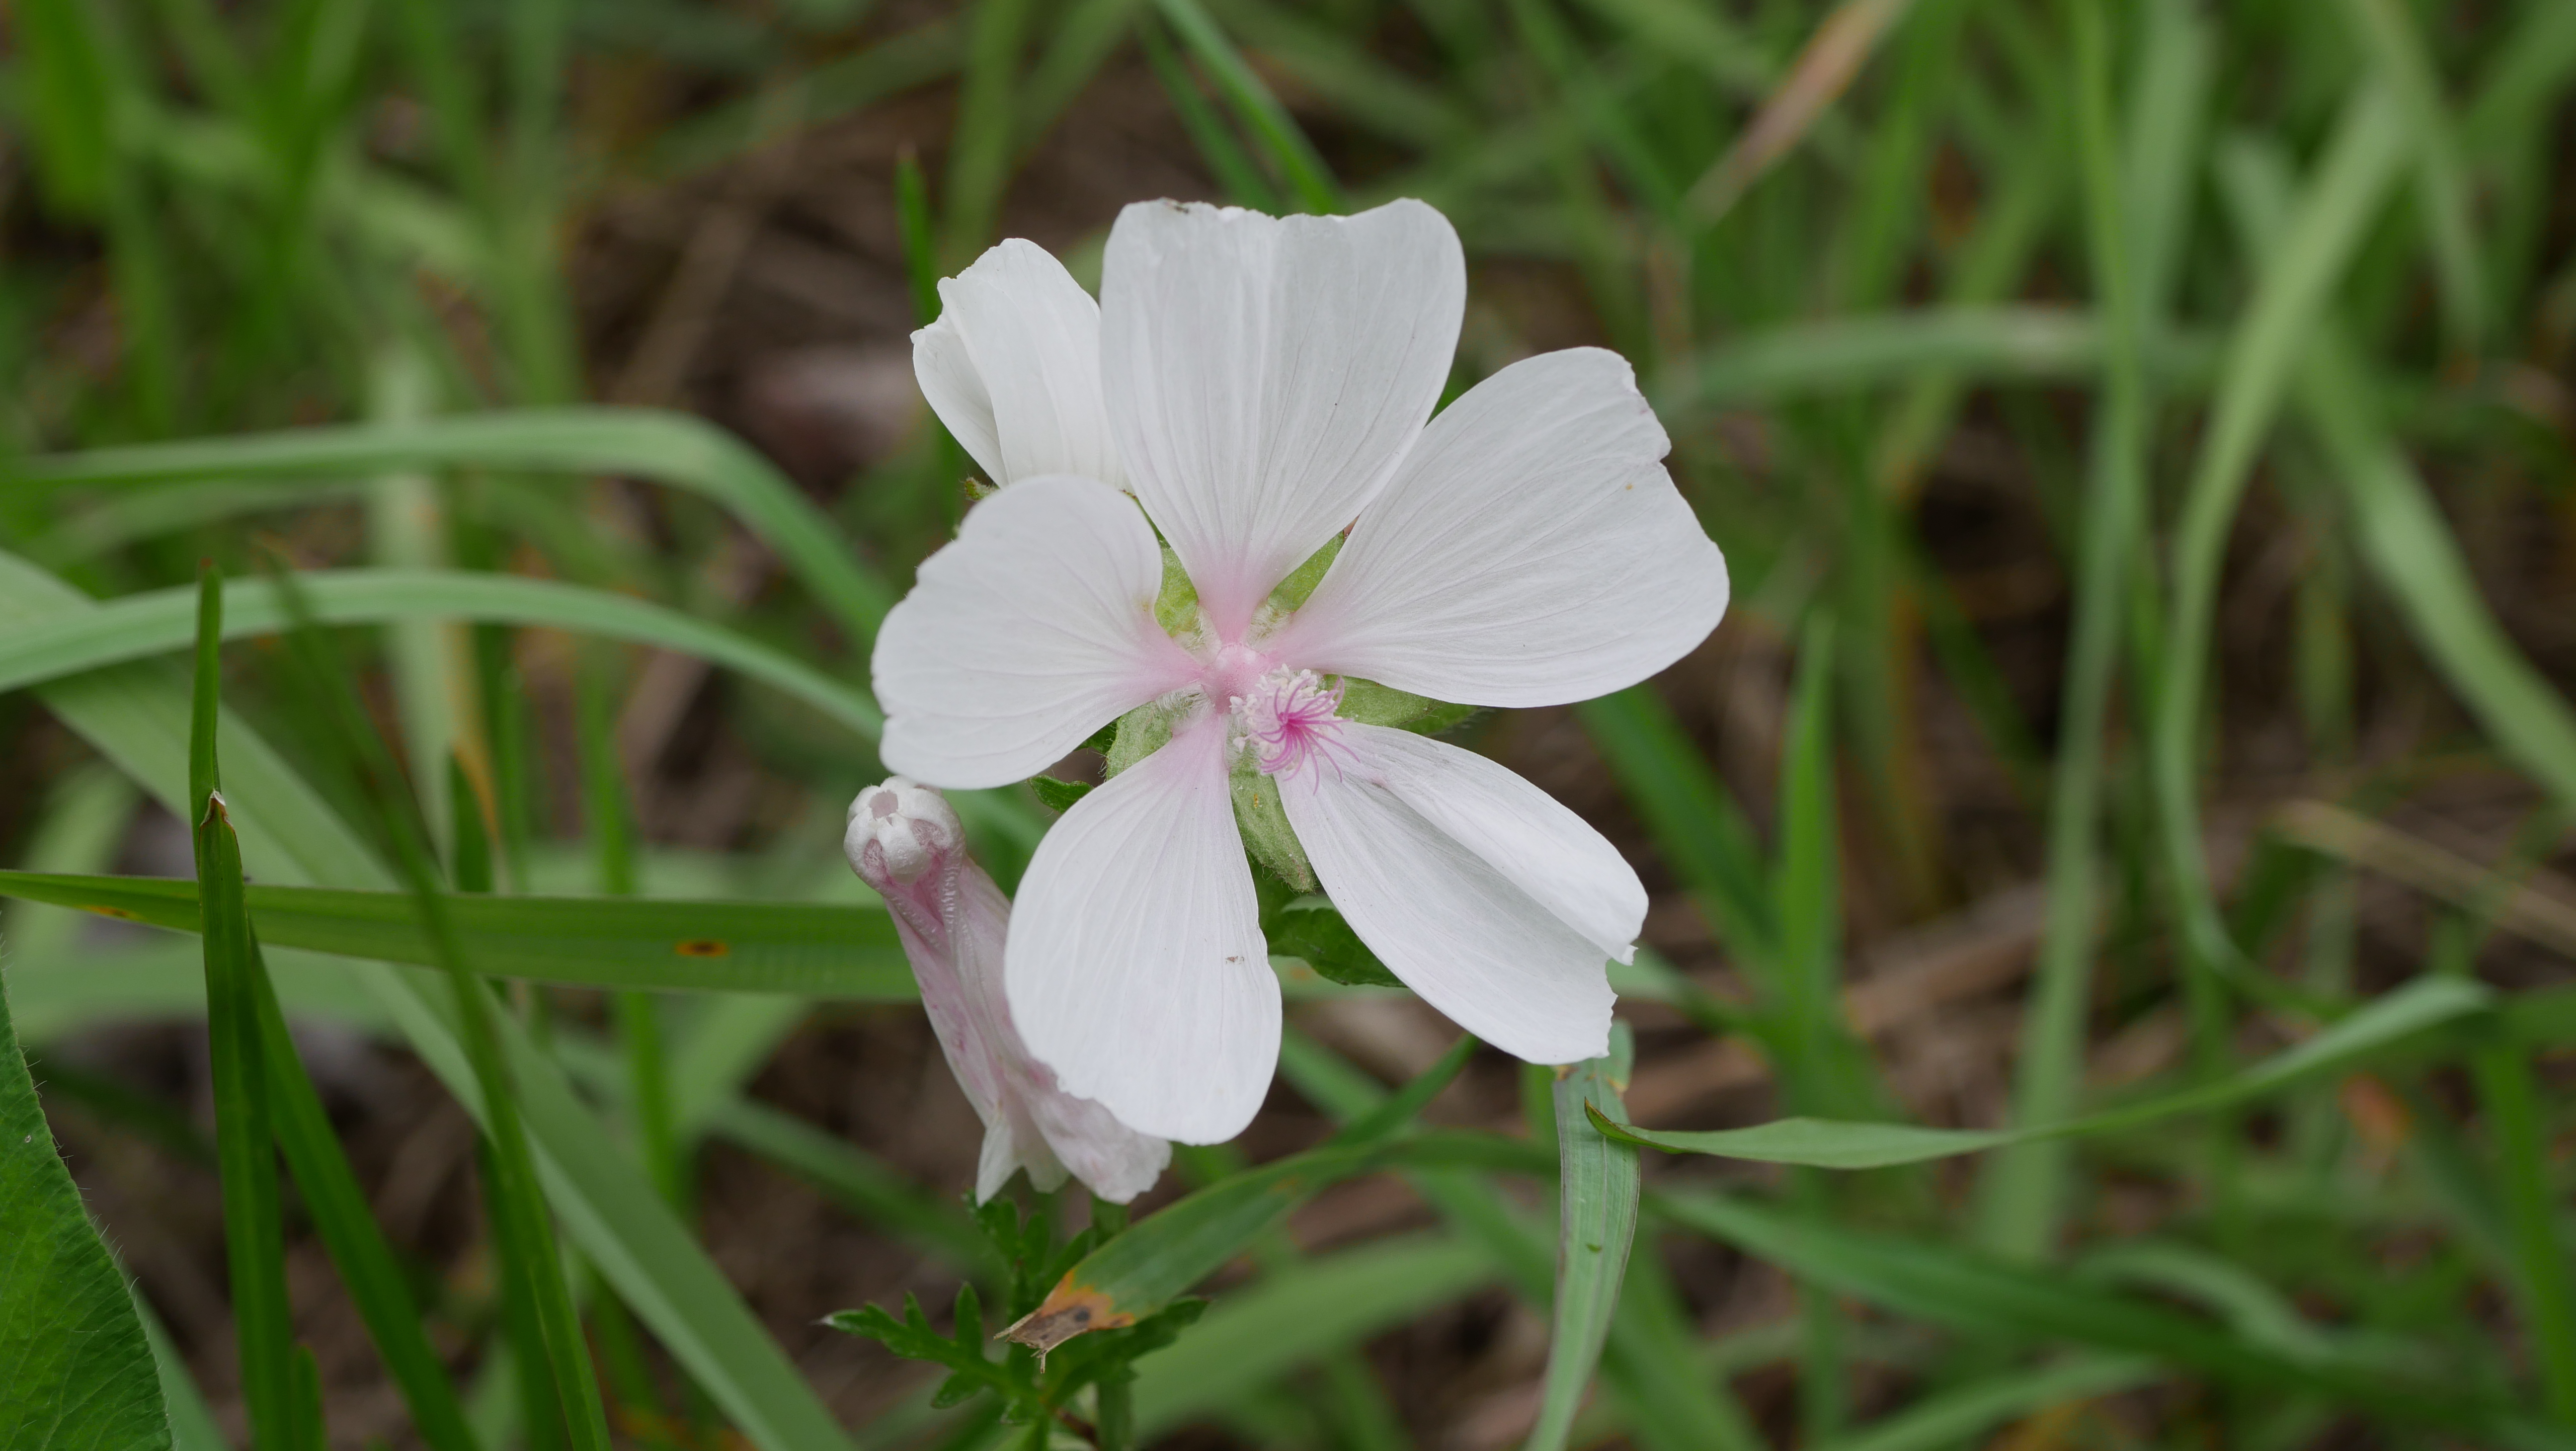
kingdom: Plantae
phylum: Tracheophyta
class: Magnoliopsida
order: Malvales
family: Malvaceae
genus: Malva
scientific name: Malva moschata
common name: Moskus-katost
